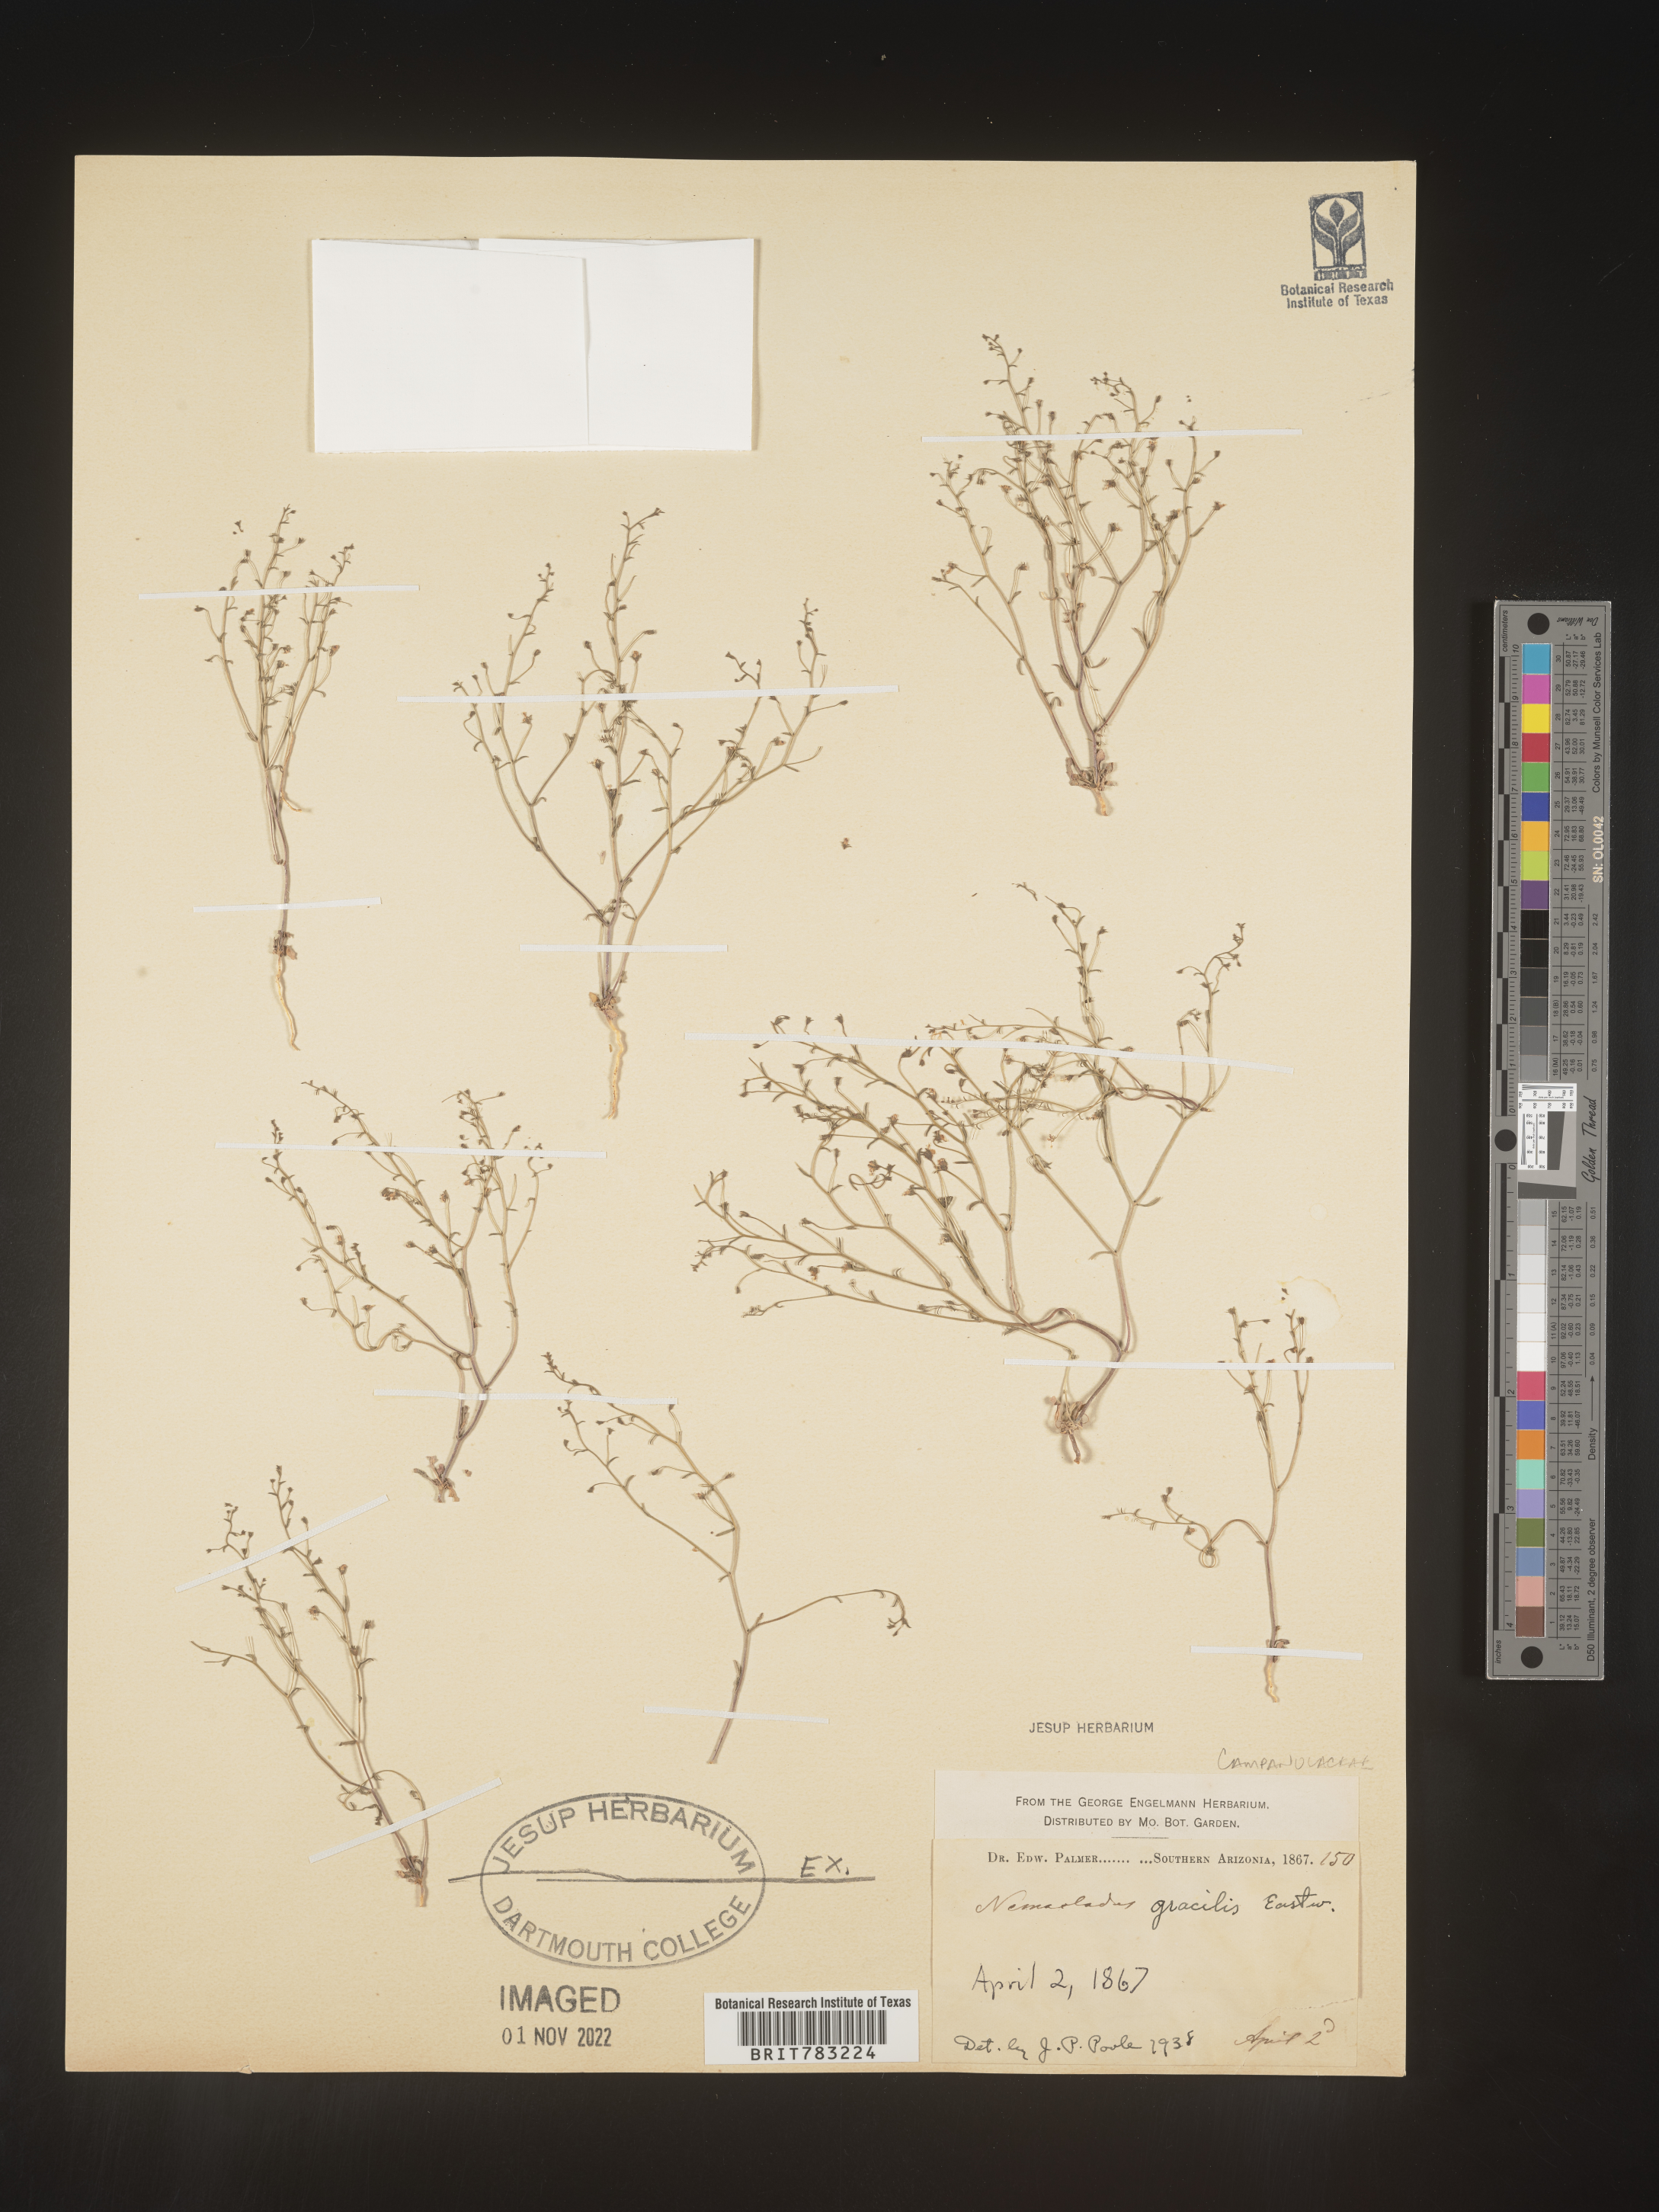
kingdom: Plantae
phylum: Tracheophyta
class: Magnoliopsida
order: Asterales
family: Campanulaceae
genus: Nemacladus
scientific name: Nemacladus
